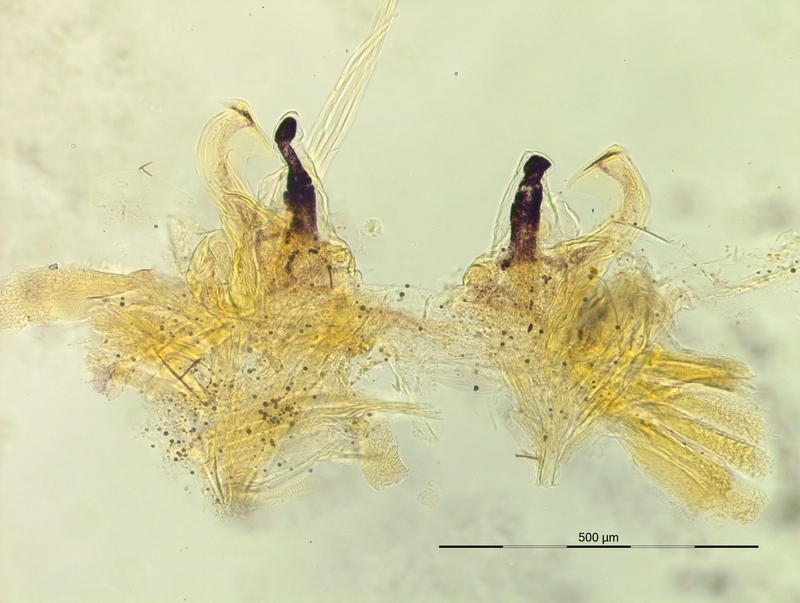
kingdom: Animalia
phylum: Arthropoda
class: Diplopoda
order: Chordeumatida
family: Craspedosomatidae
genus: Iulogona
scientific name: Iulogona tirolensis
